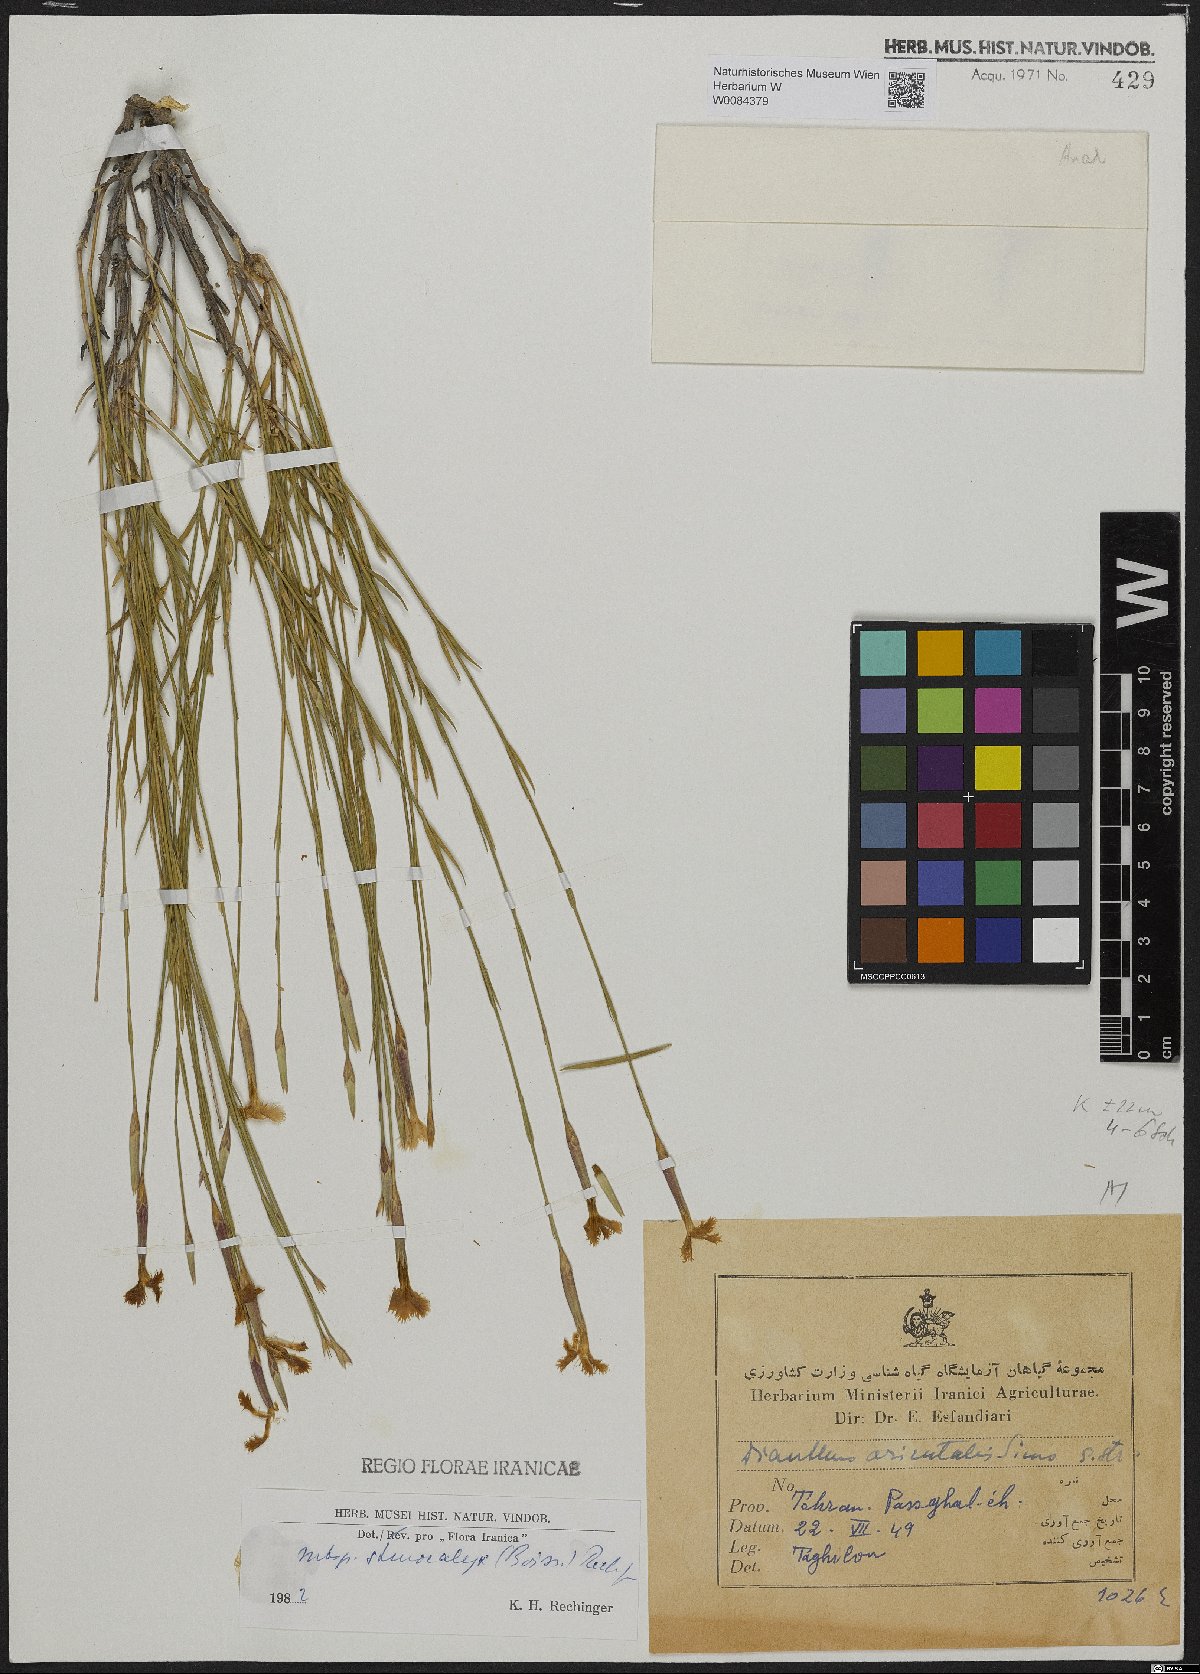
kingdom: Plantae
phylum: Tracheophyta
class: Magnoliopsida
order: Caryophyllales
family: Caryophyllaceae
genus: Dianthus
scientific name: Dianthus orientalis
